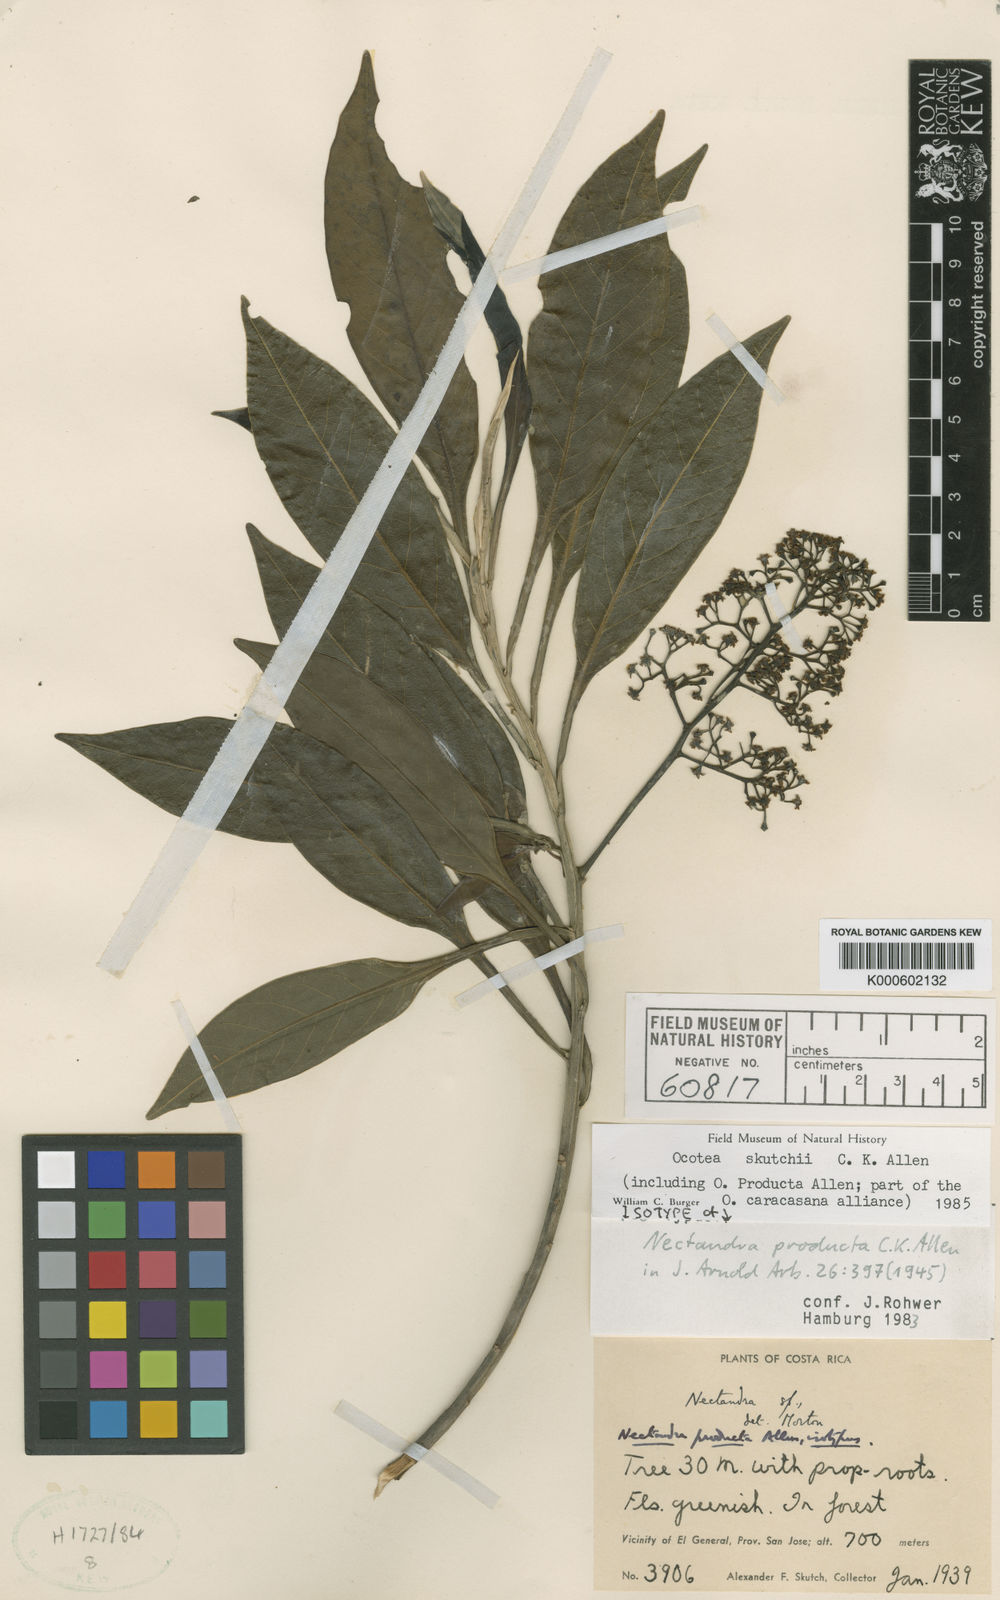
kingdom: Plantae
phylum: Tracheophyta
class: Magnoliopsida
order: Laurales
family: Lauraceae
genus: Ocotea
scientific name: Ocotea whitei
